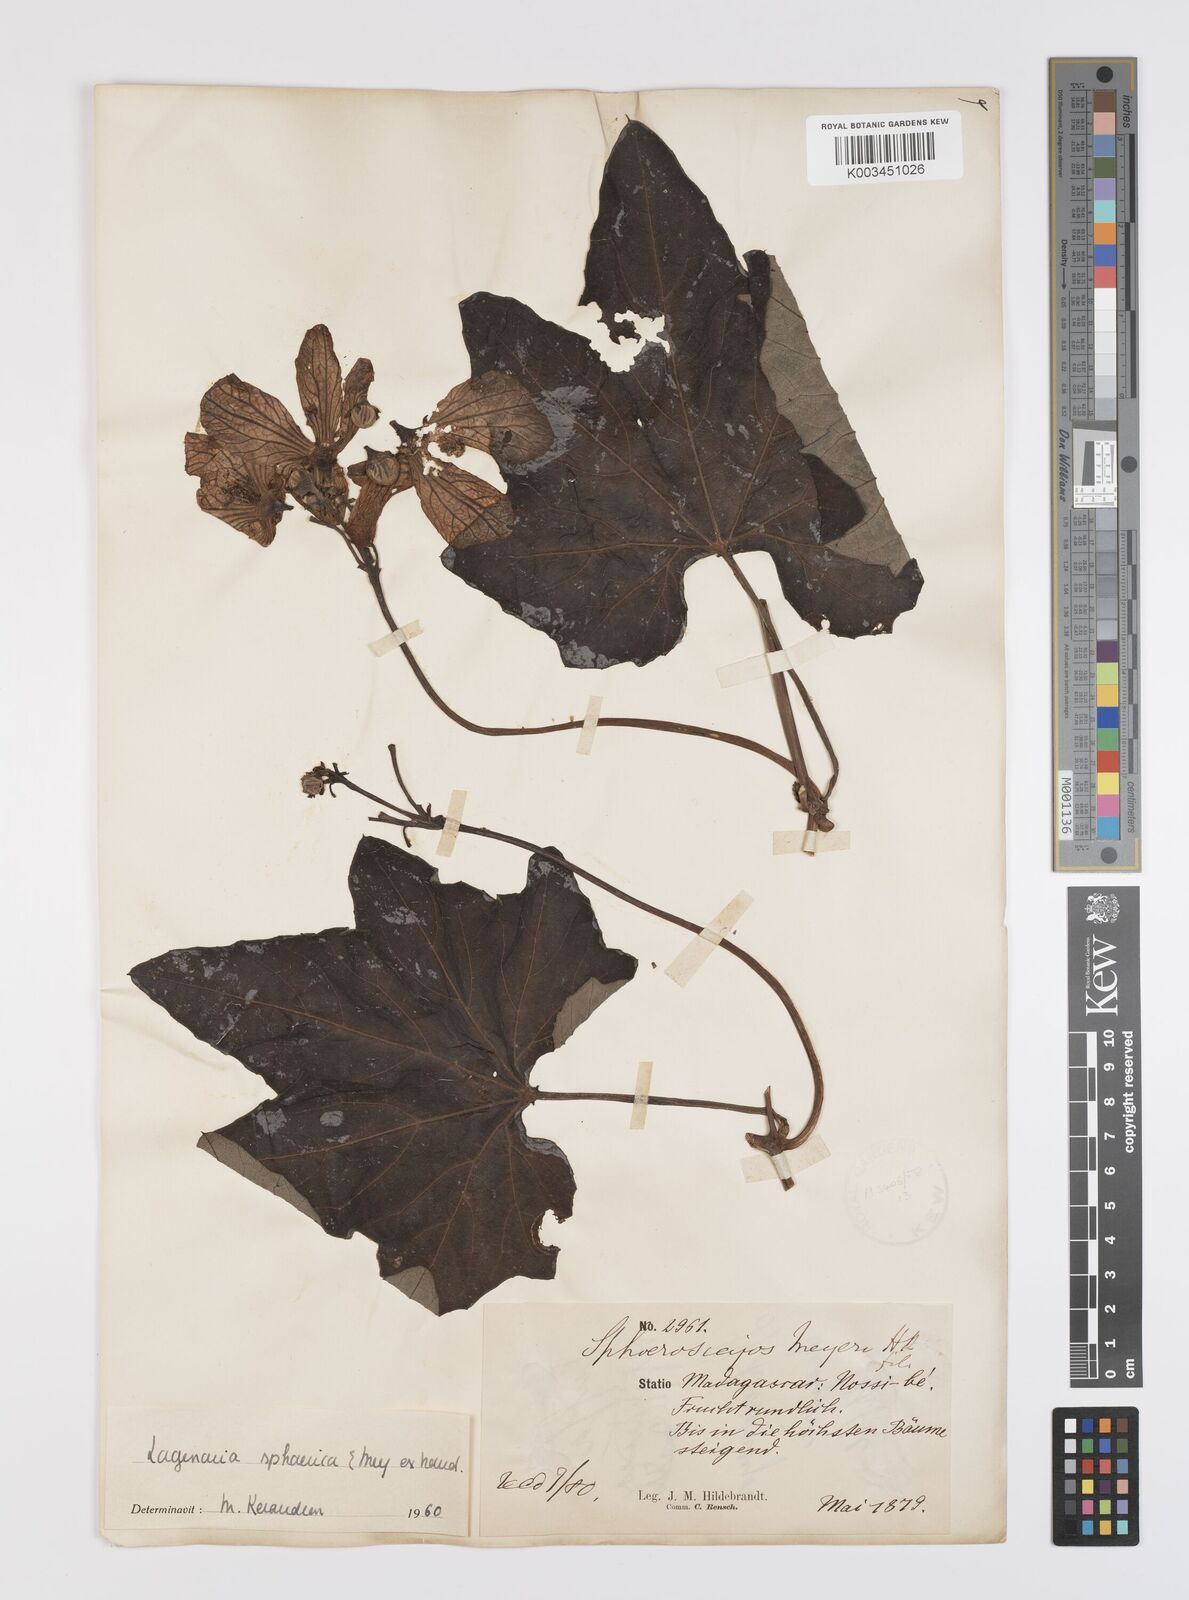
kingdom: Plantae
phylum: Tracheophyta
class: Magnoliopsida
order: Cucurbitales
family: Cucurbitaceae
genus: Lagenaria
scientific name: Lagenaria sphaerica
